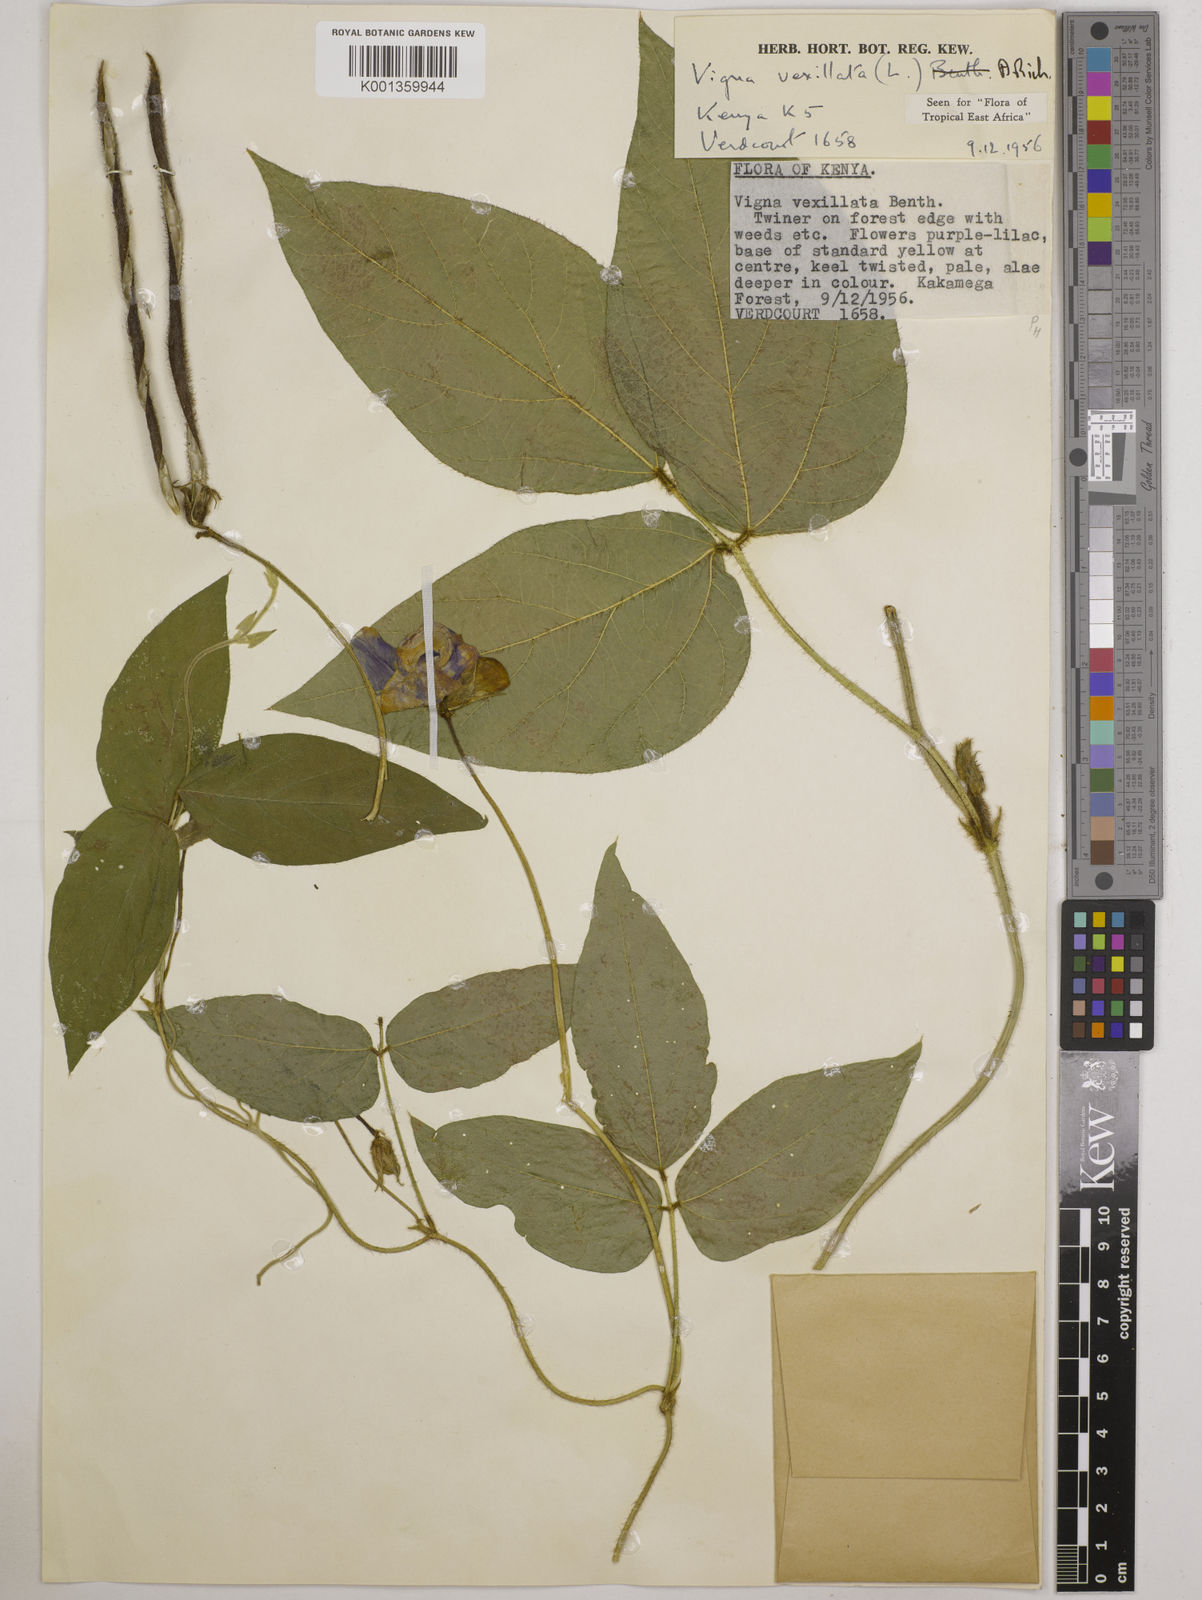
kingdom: Plantae
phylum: Tracheophyta
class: Magnoliopsida
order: Fabales
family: Fabaceae
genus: Vigna
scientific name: Vigna vexillata
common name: Zombi pea
